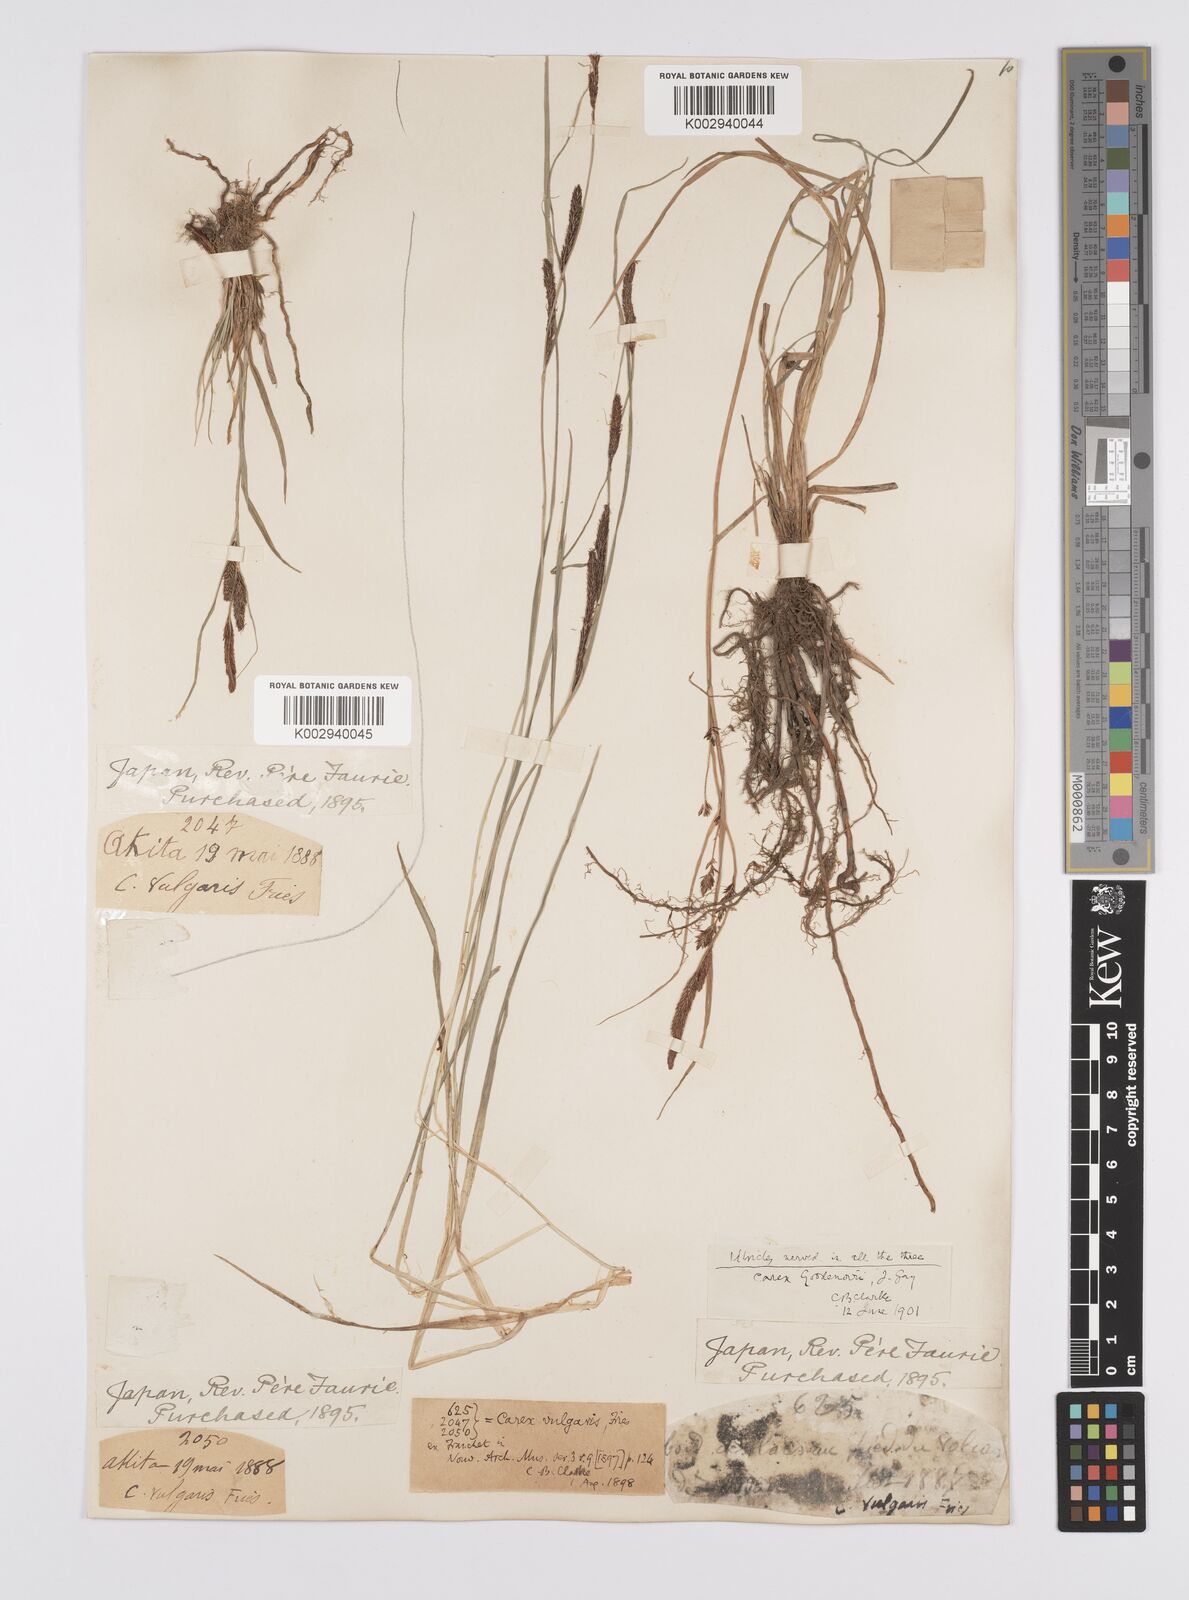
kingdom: Plantae
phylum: Tracheophyta
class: Liliopsida
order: Poales
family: Cyperaceae
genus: Carex
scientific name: Carex thunbergii
